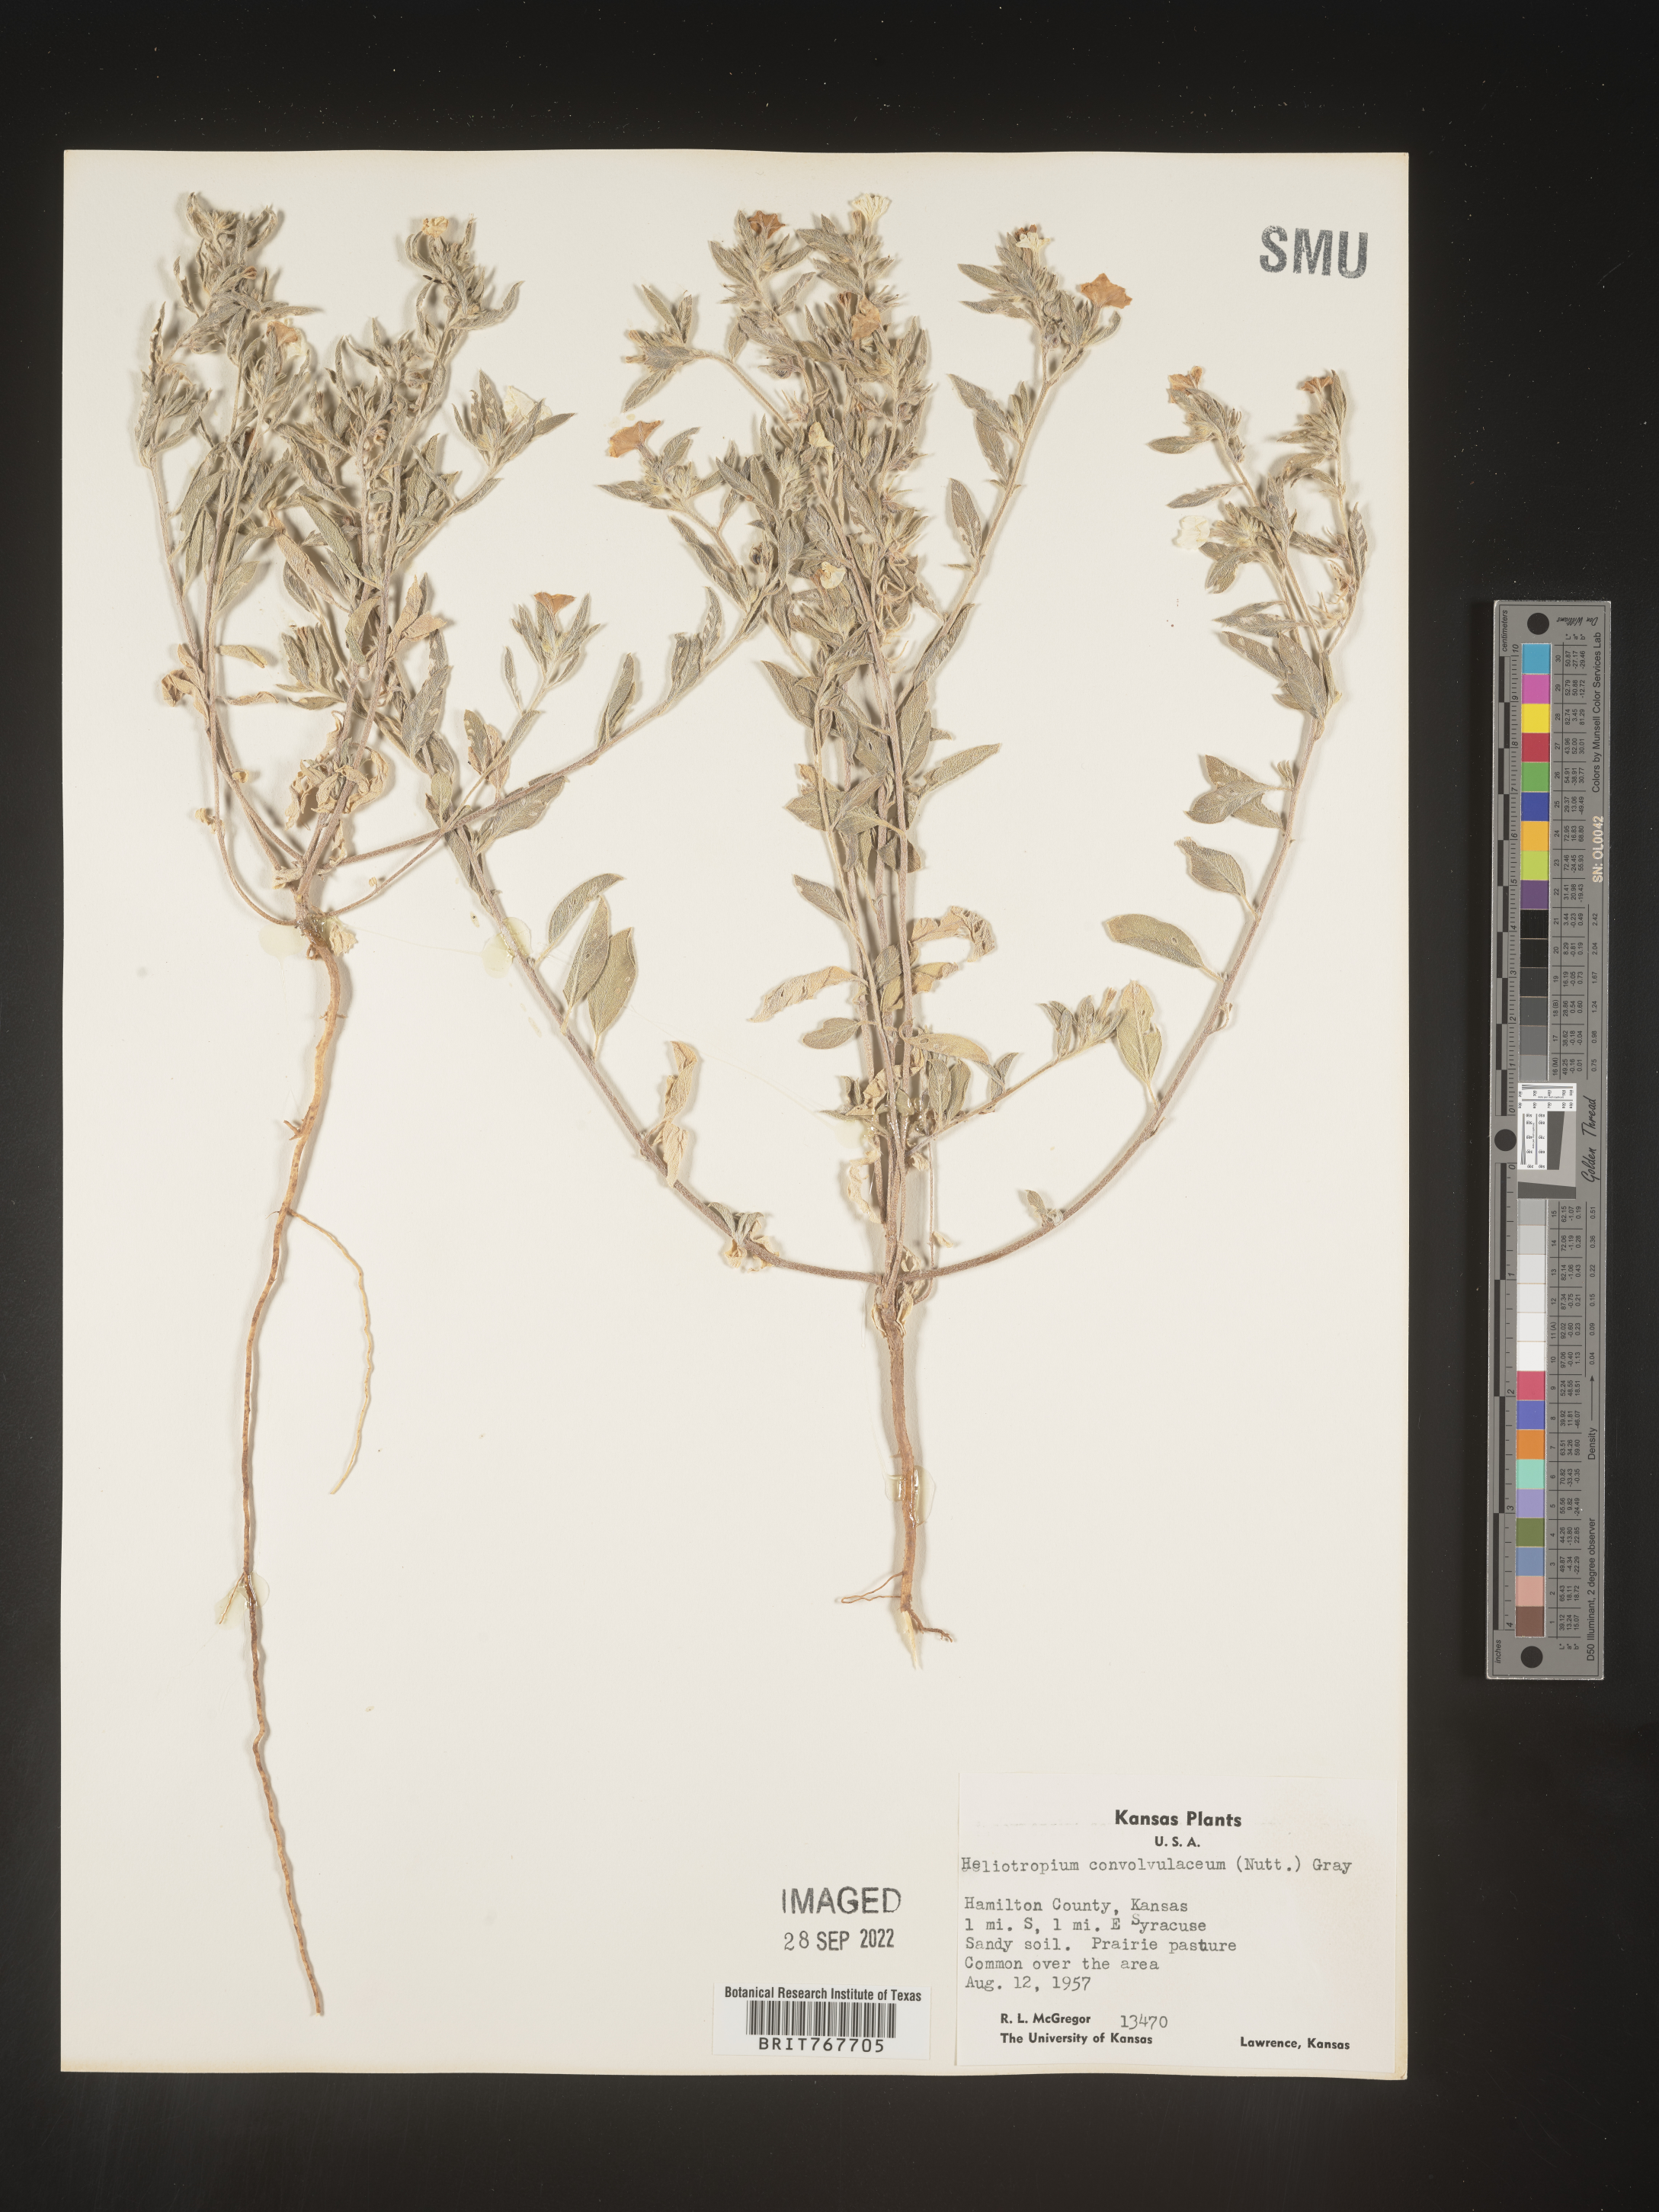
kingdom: Plantae
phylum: Tracheophyta
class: Magnoliopsida
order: Boraginales
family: Heliotropiaceae
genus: Heliotropium
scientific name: Heliotropium
